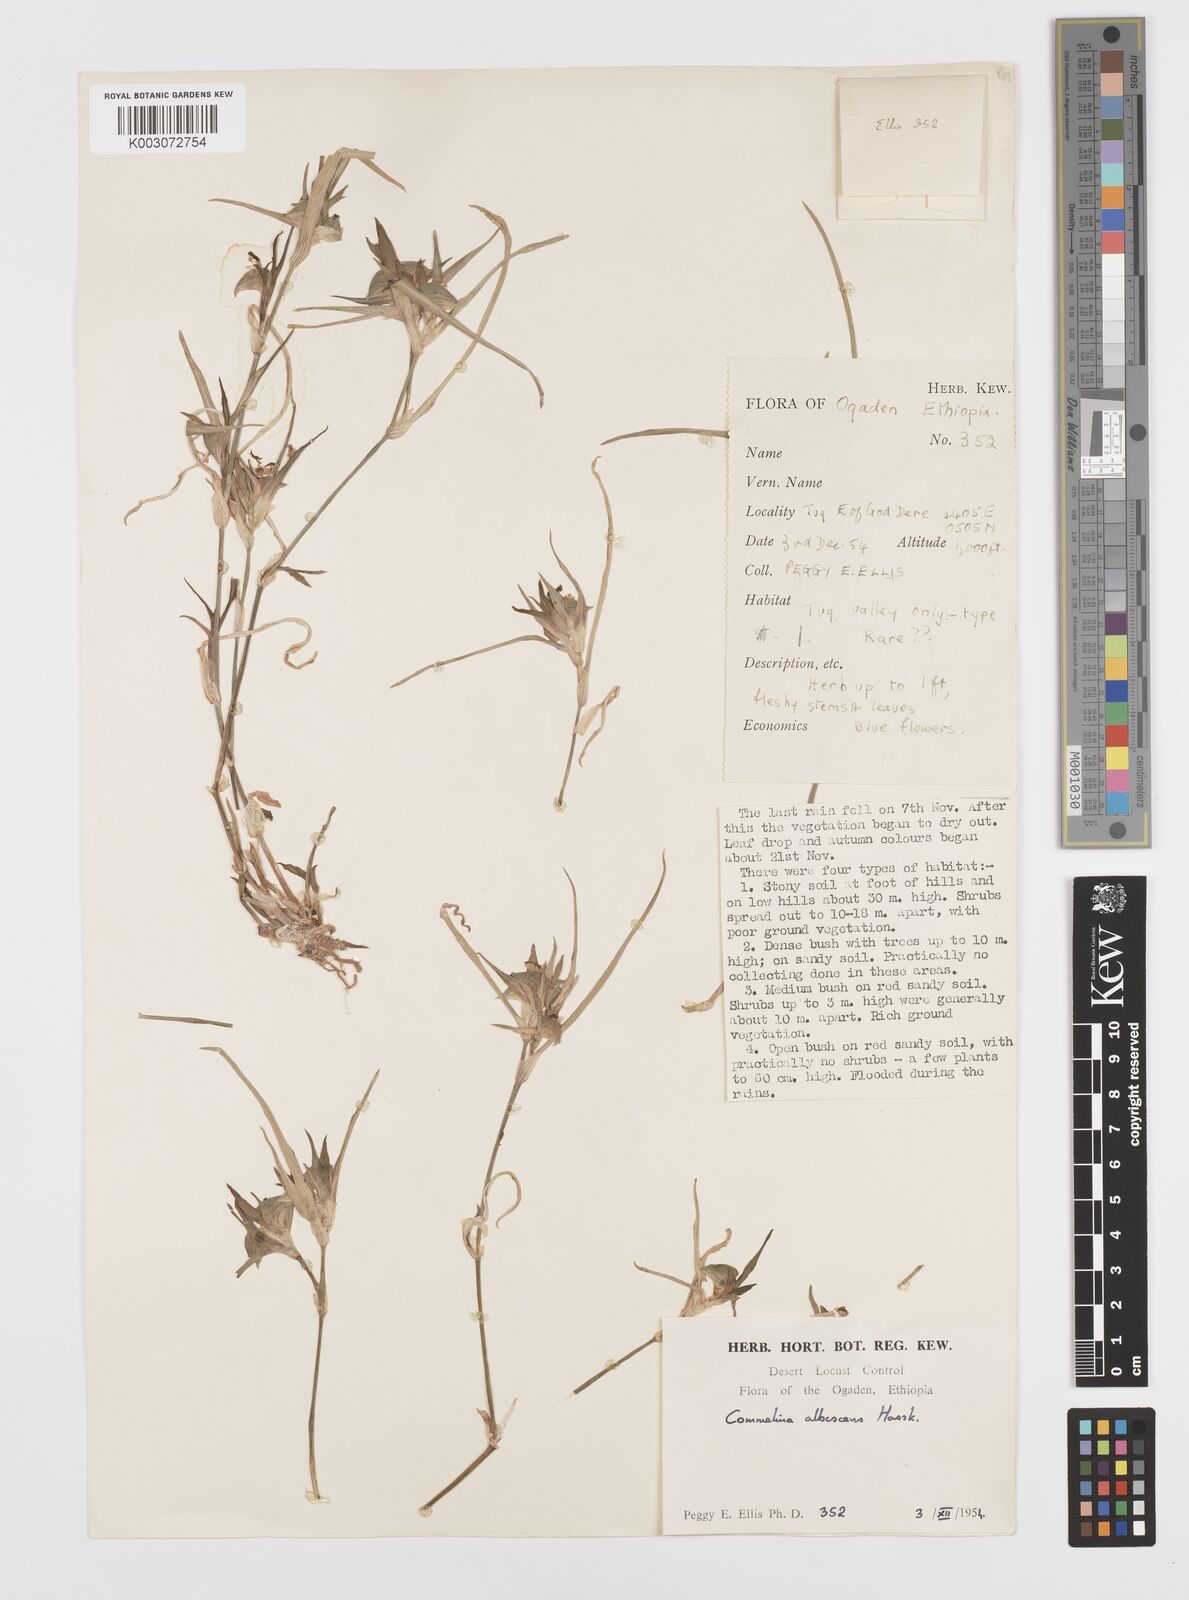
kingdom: Plantae
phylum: Tracheophyta
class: Liliopsida
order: Commelinales
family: Commelinaceae
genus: Commelina
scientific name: Commelina albescens
